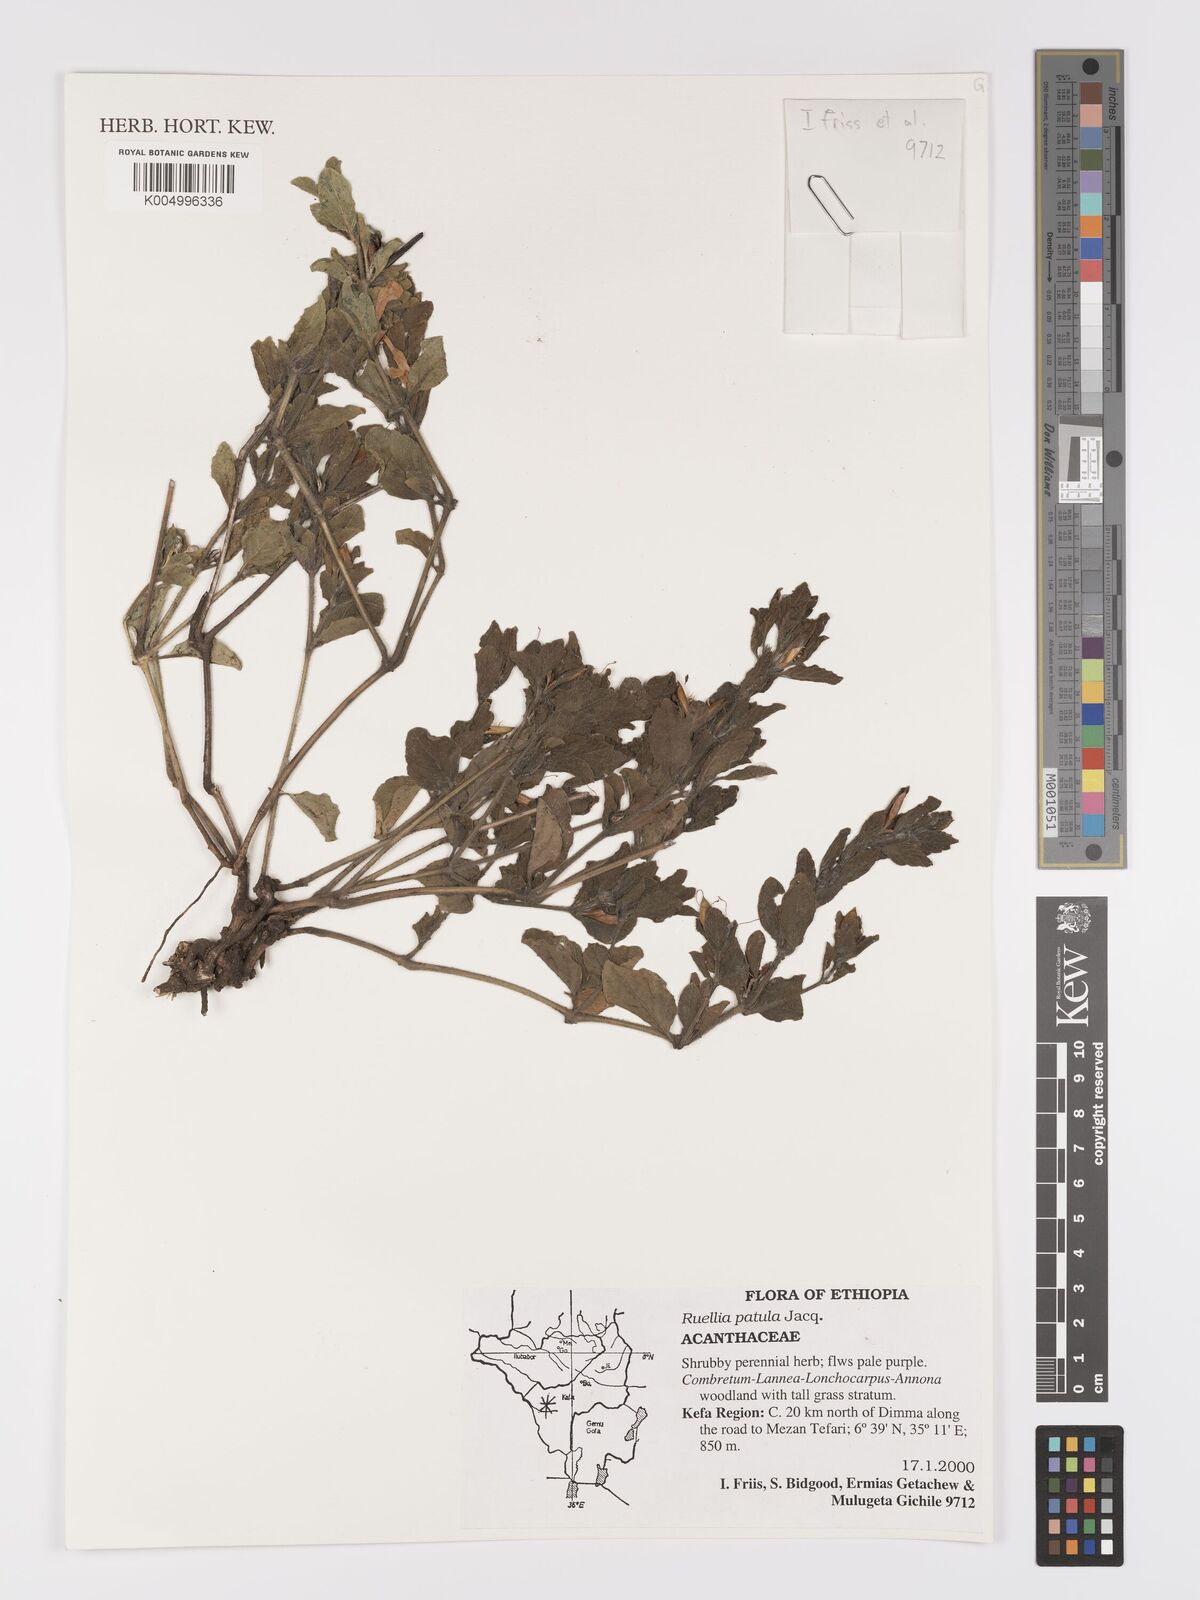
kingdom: Plantae
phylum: Tracheophyta
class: Magnoliopsida
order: Lamiales
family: Acanthaceae
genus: Ruellia
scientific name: Ruellia patula
